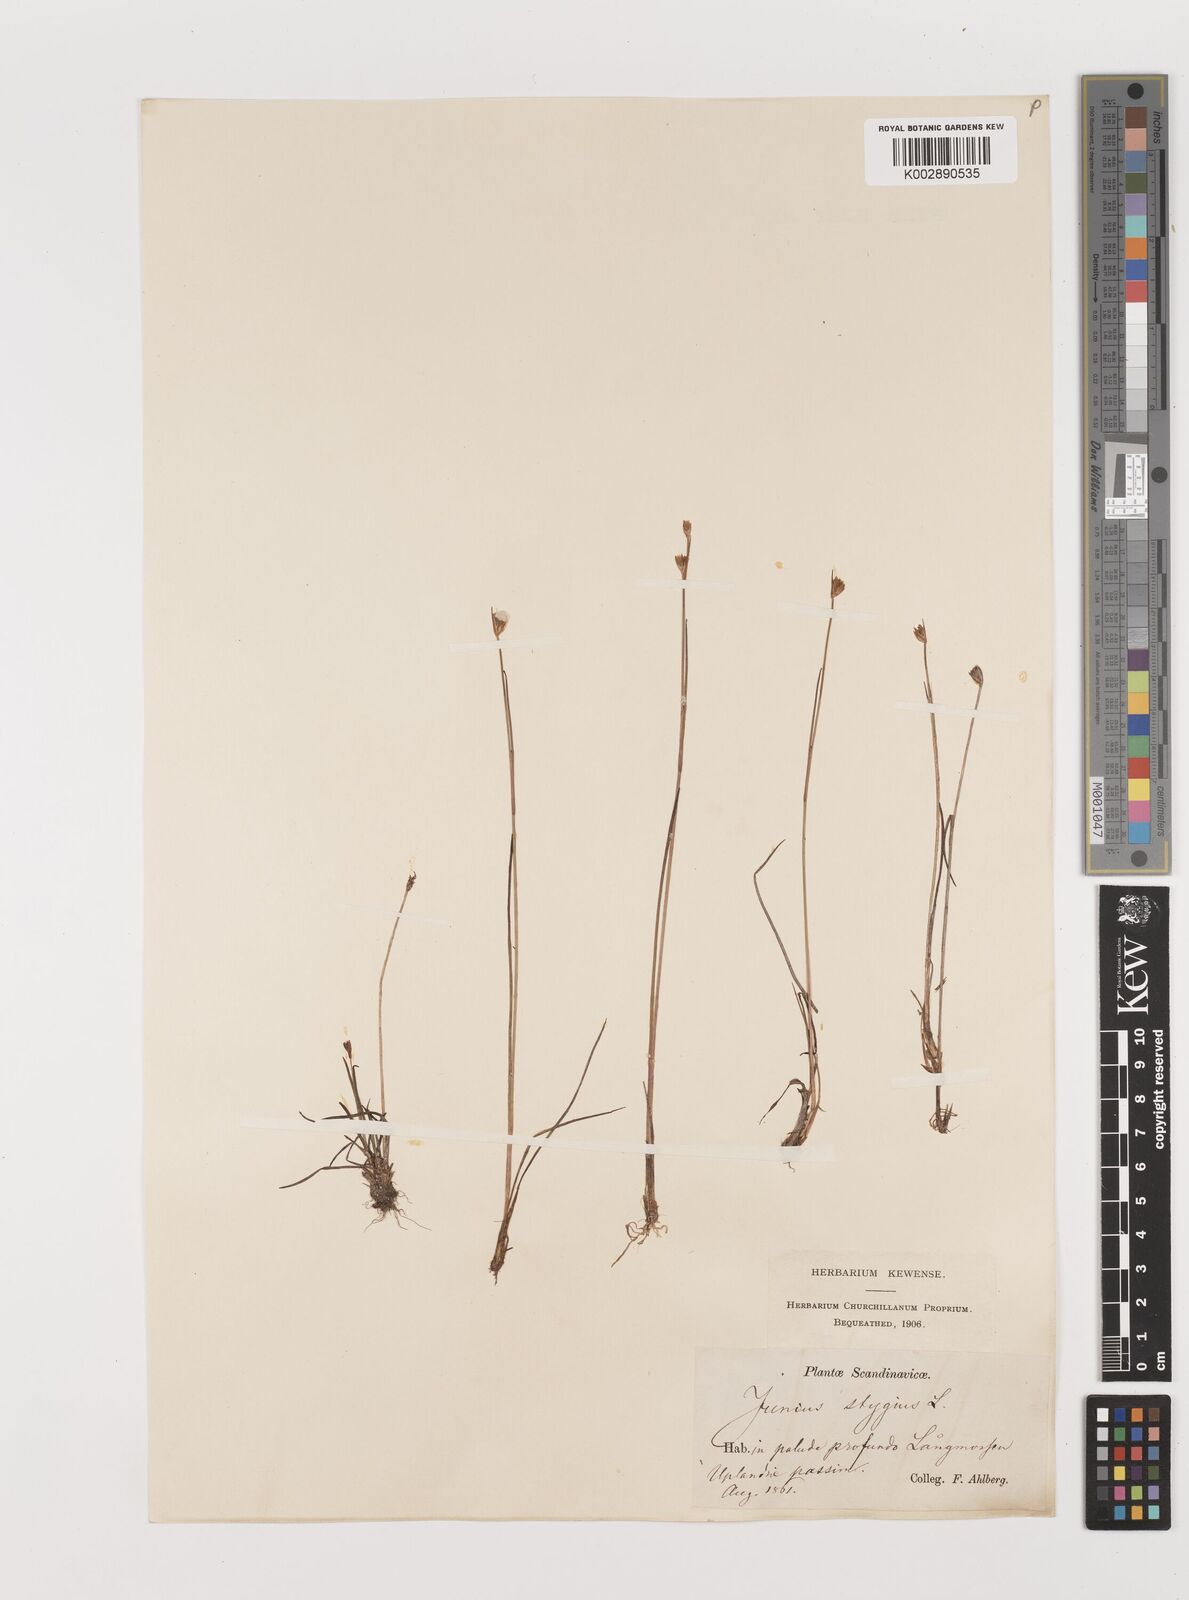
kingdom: Plantae
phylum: Tracheophyta
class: Liliopsida
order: Poales
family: Juncaceae
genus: Juncus
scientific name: Juncus stygius
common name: Bog rush
